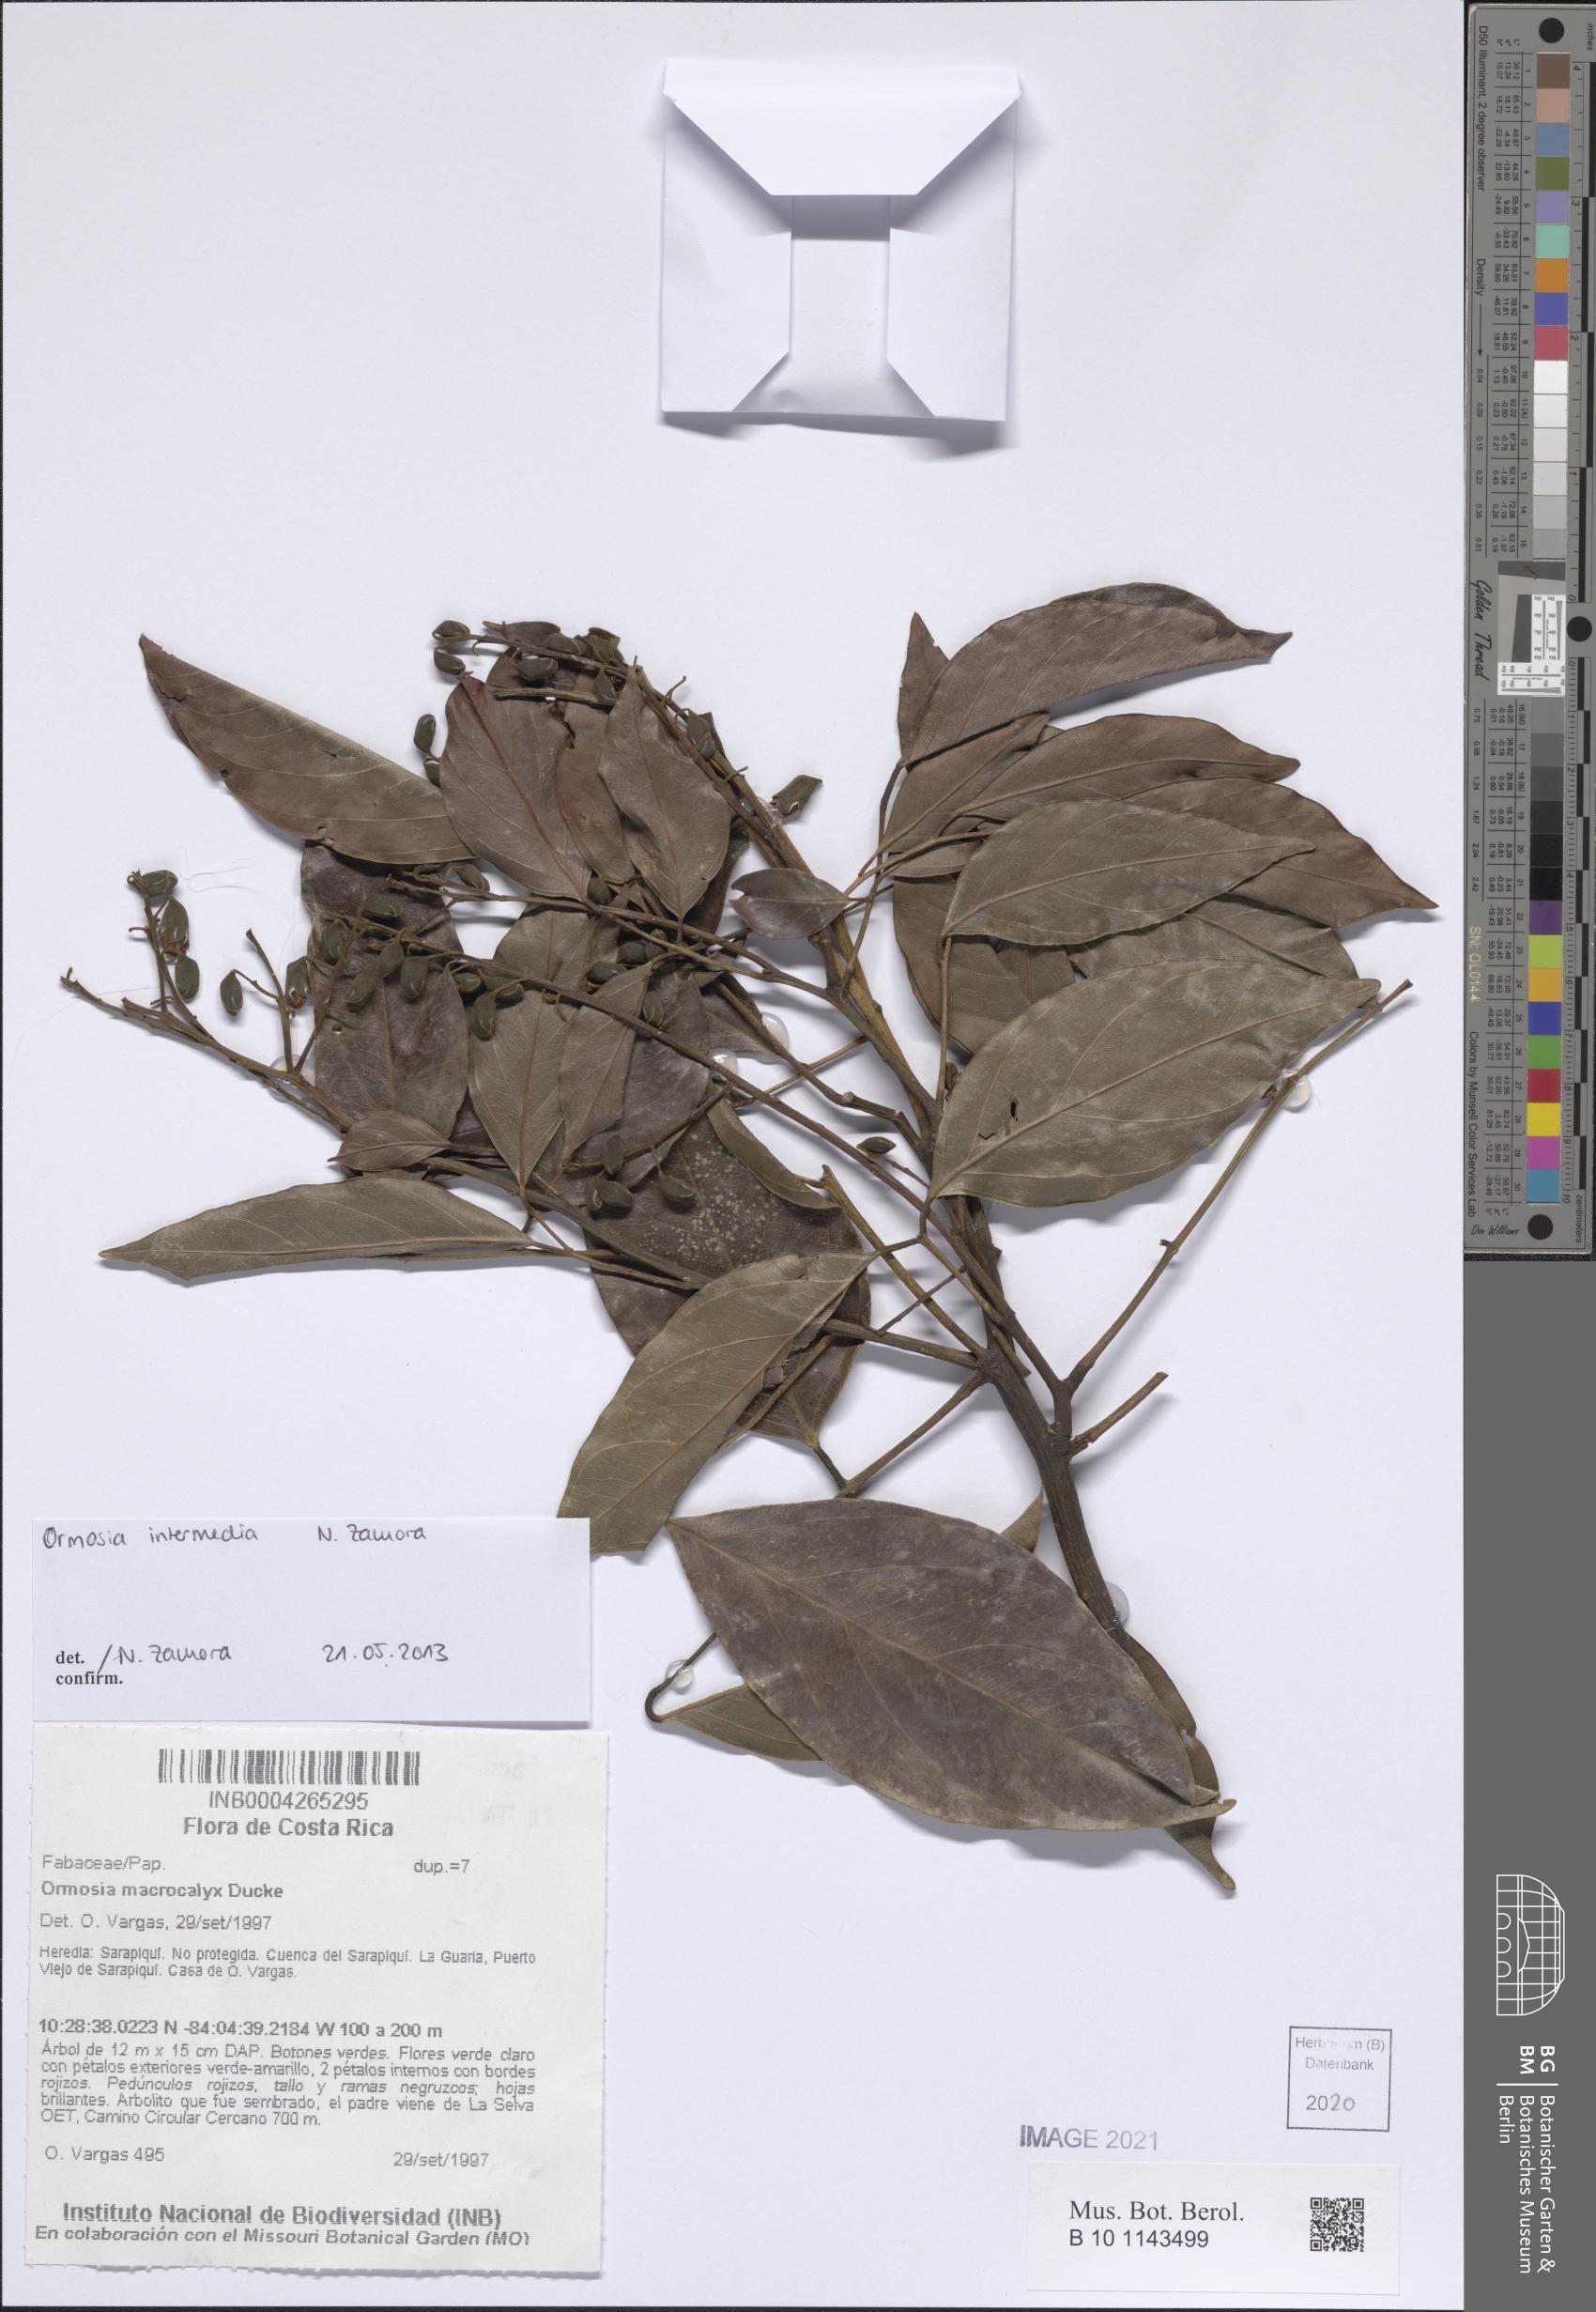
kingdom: Plantae
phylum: Tracheophyta
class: Magnoliopsida
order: Fabales
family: Fabaceae
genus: Ormosia
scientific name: Ormosia intermedia
